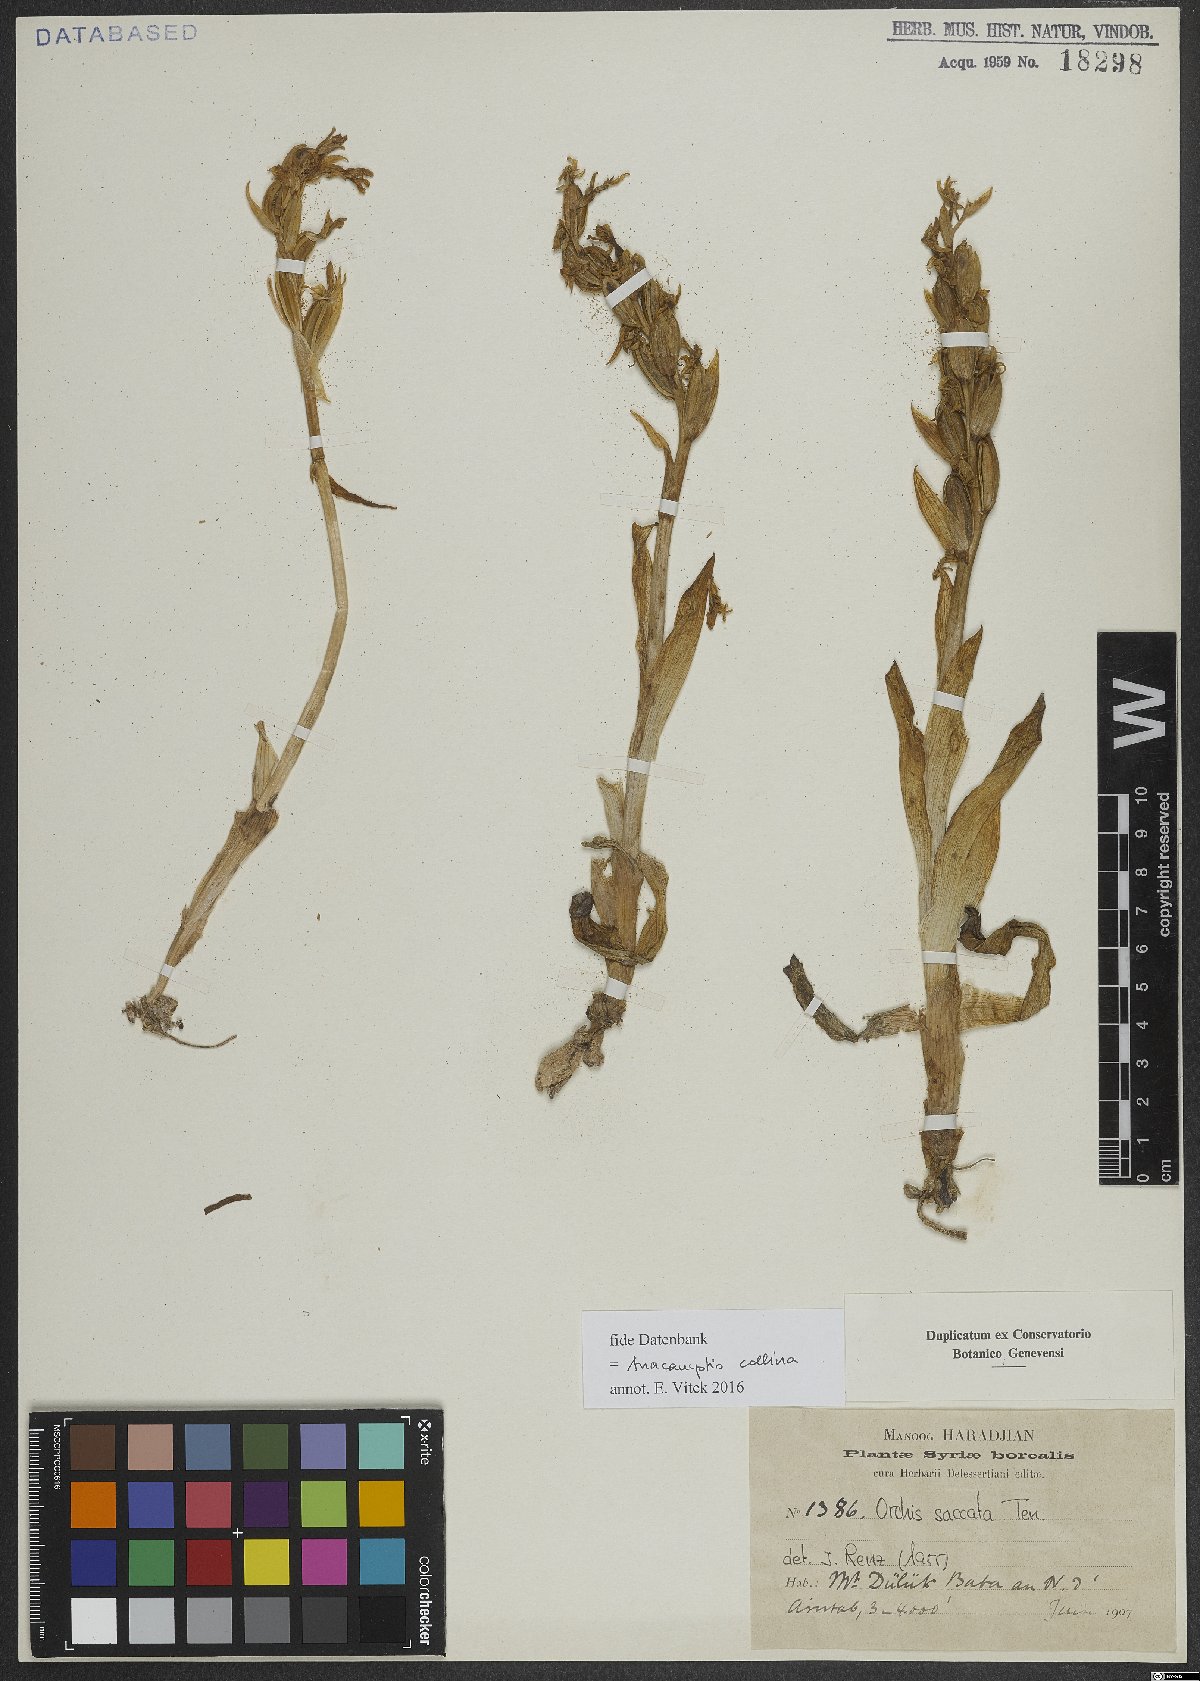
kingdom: Plantae
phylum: Tracheophyta
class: Liliopsida
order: Asparagales
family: Orchidaceae
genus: Anacamptis
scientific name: Anacamptis collina
